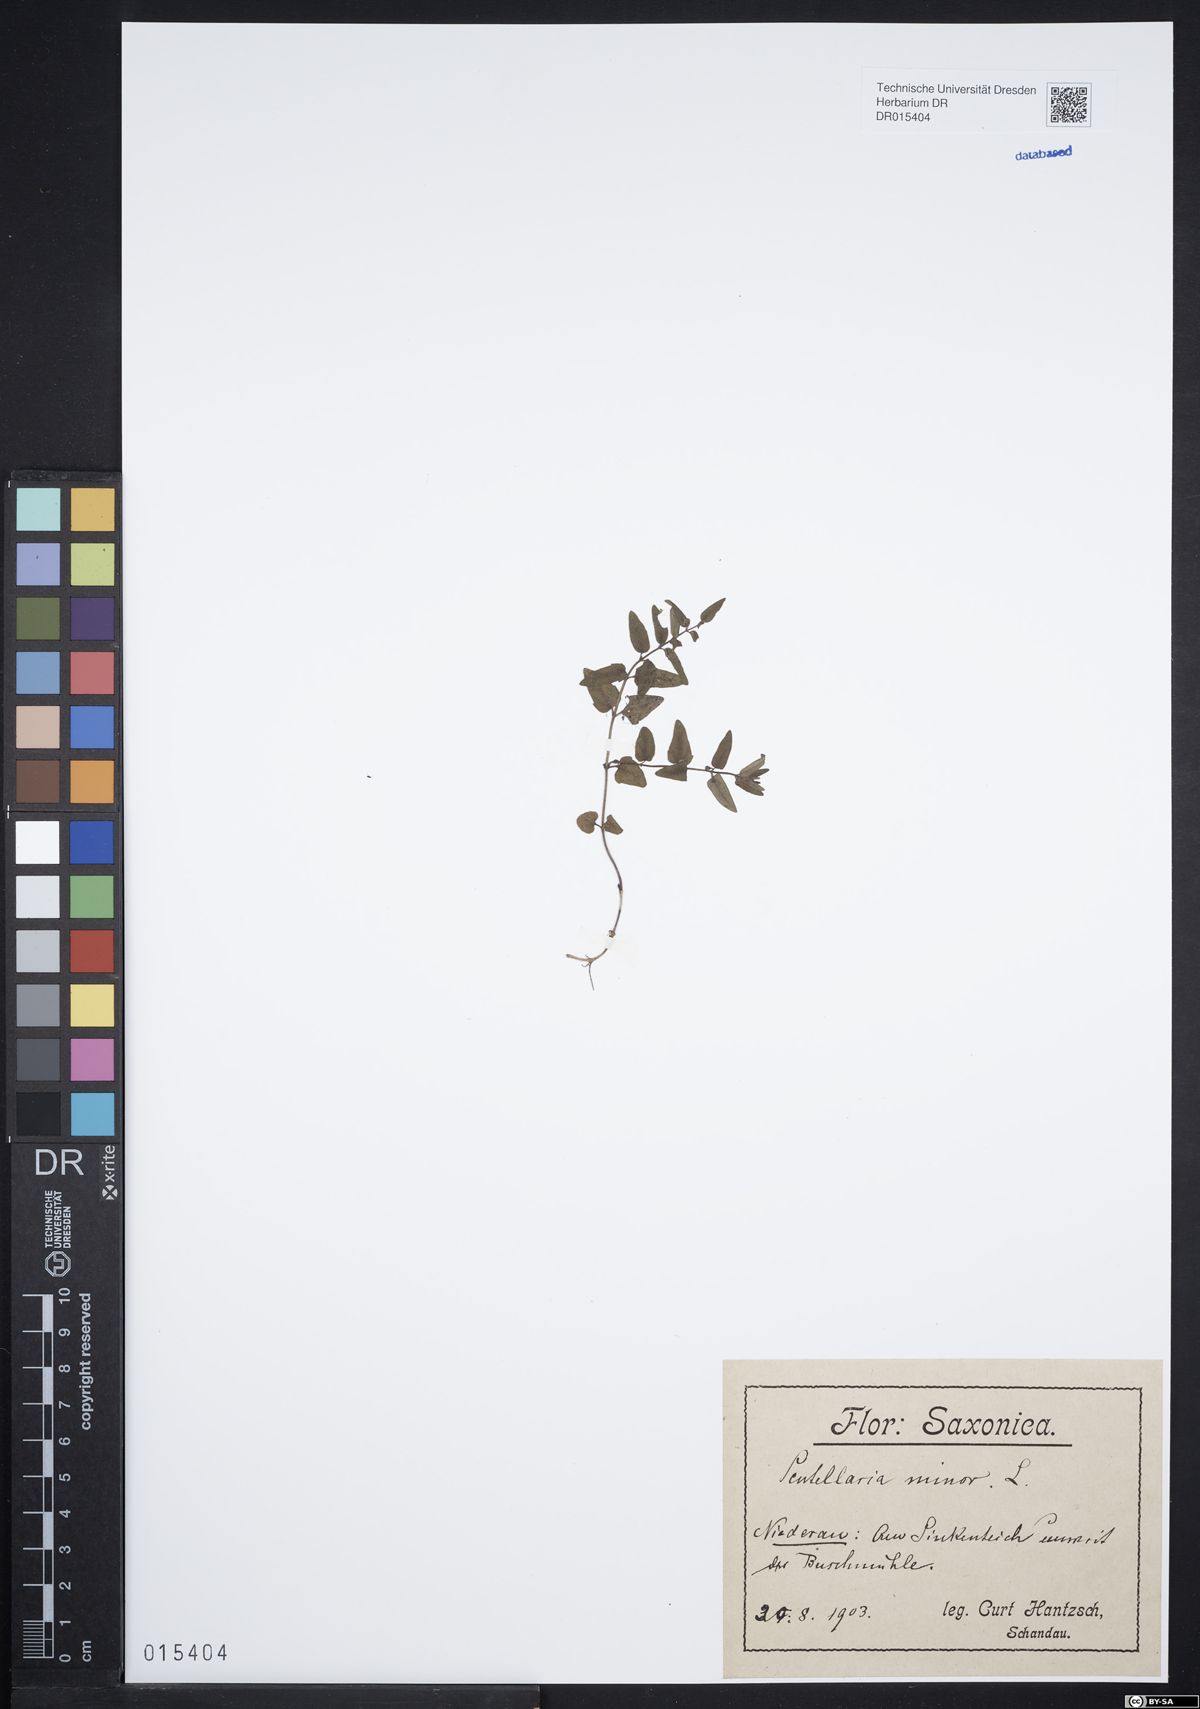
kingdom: Plantae
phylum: Tracheophyta
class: Magnoliopsida
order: Lamiales
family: Lamiaceae
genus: Scutellaria
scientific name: Scutellaria minor
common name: Lesser skullcap
